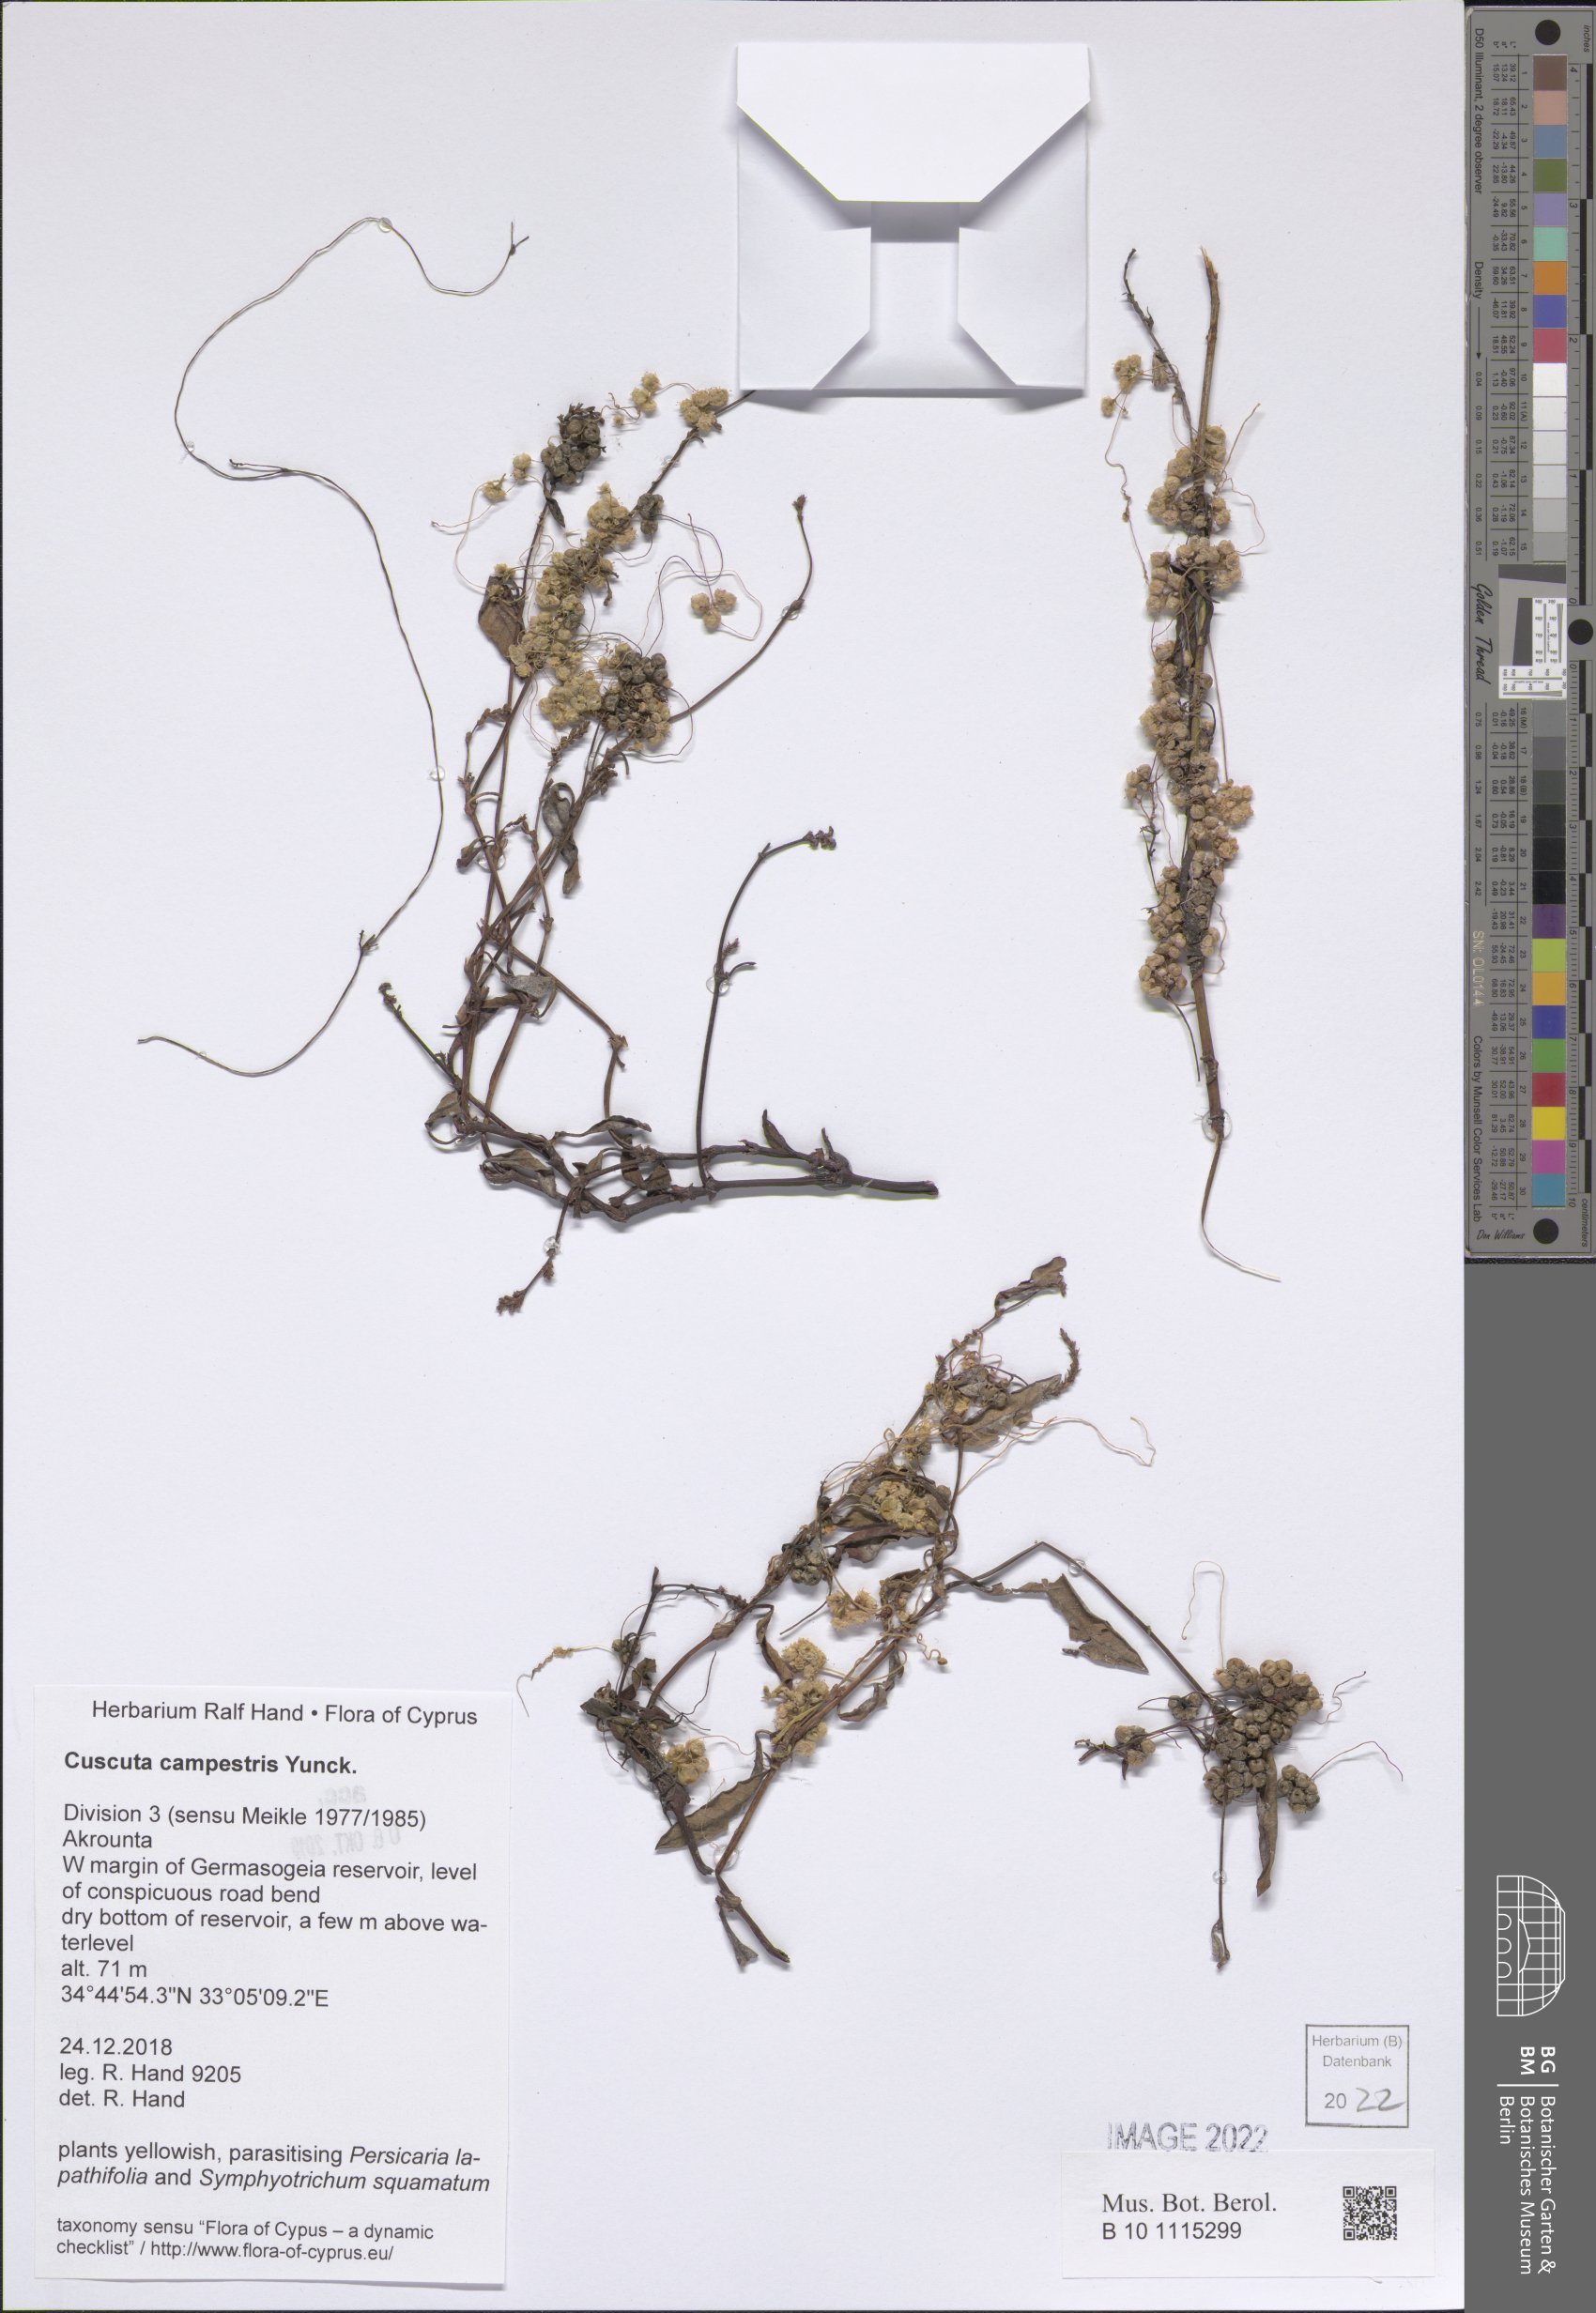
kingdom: Plantae
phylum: Tracheophyta
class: Magnoliopsida
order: Solanales
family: Convolvulaceae
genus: Cuscuta
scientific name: Cuscuta campestris
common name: Yellow dodder
